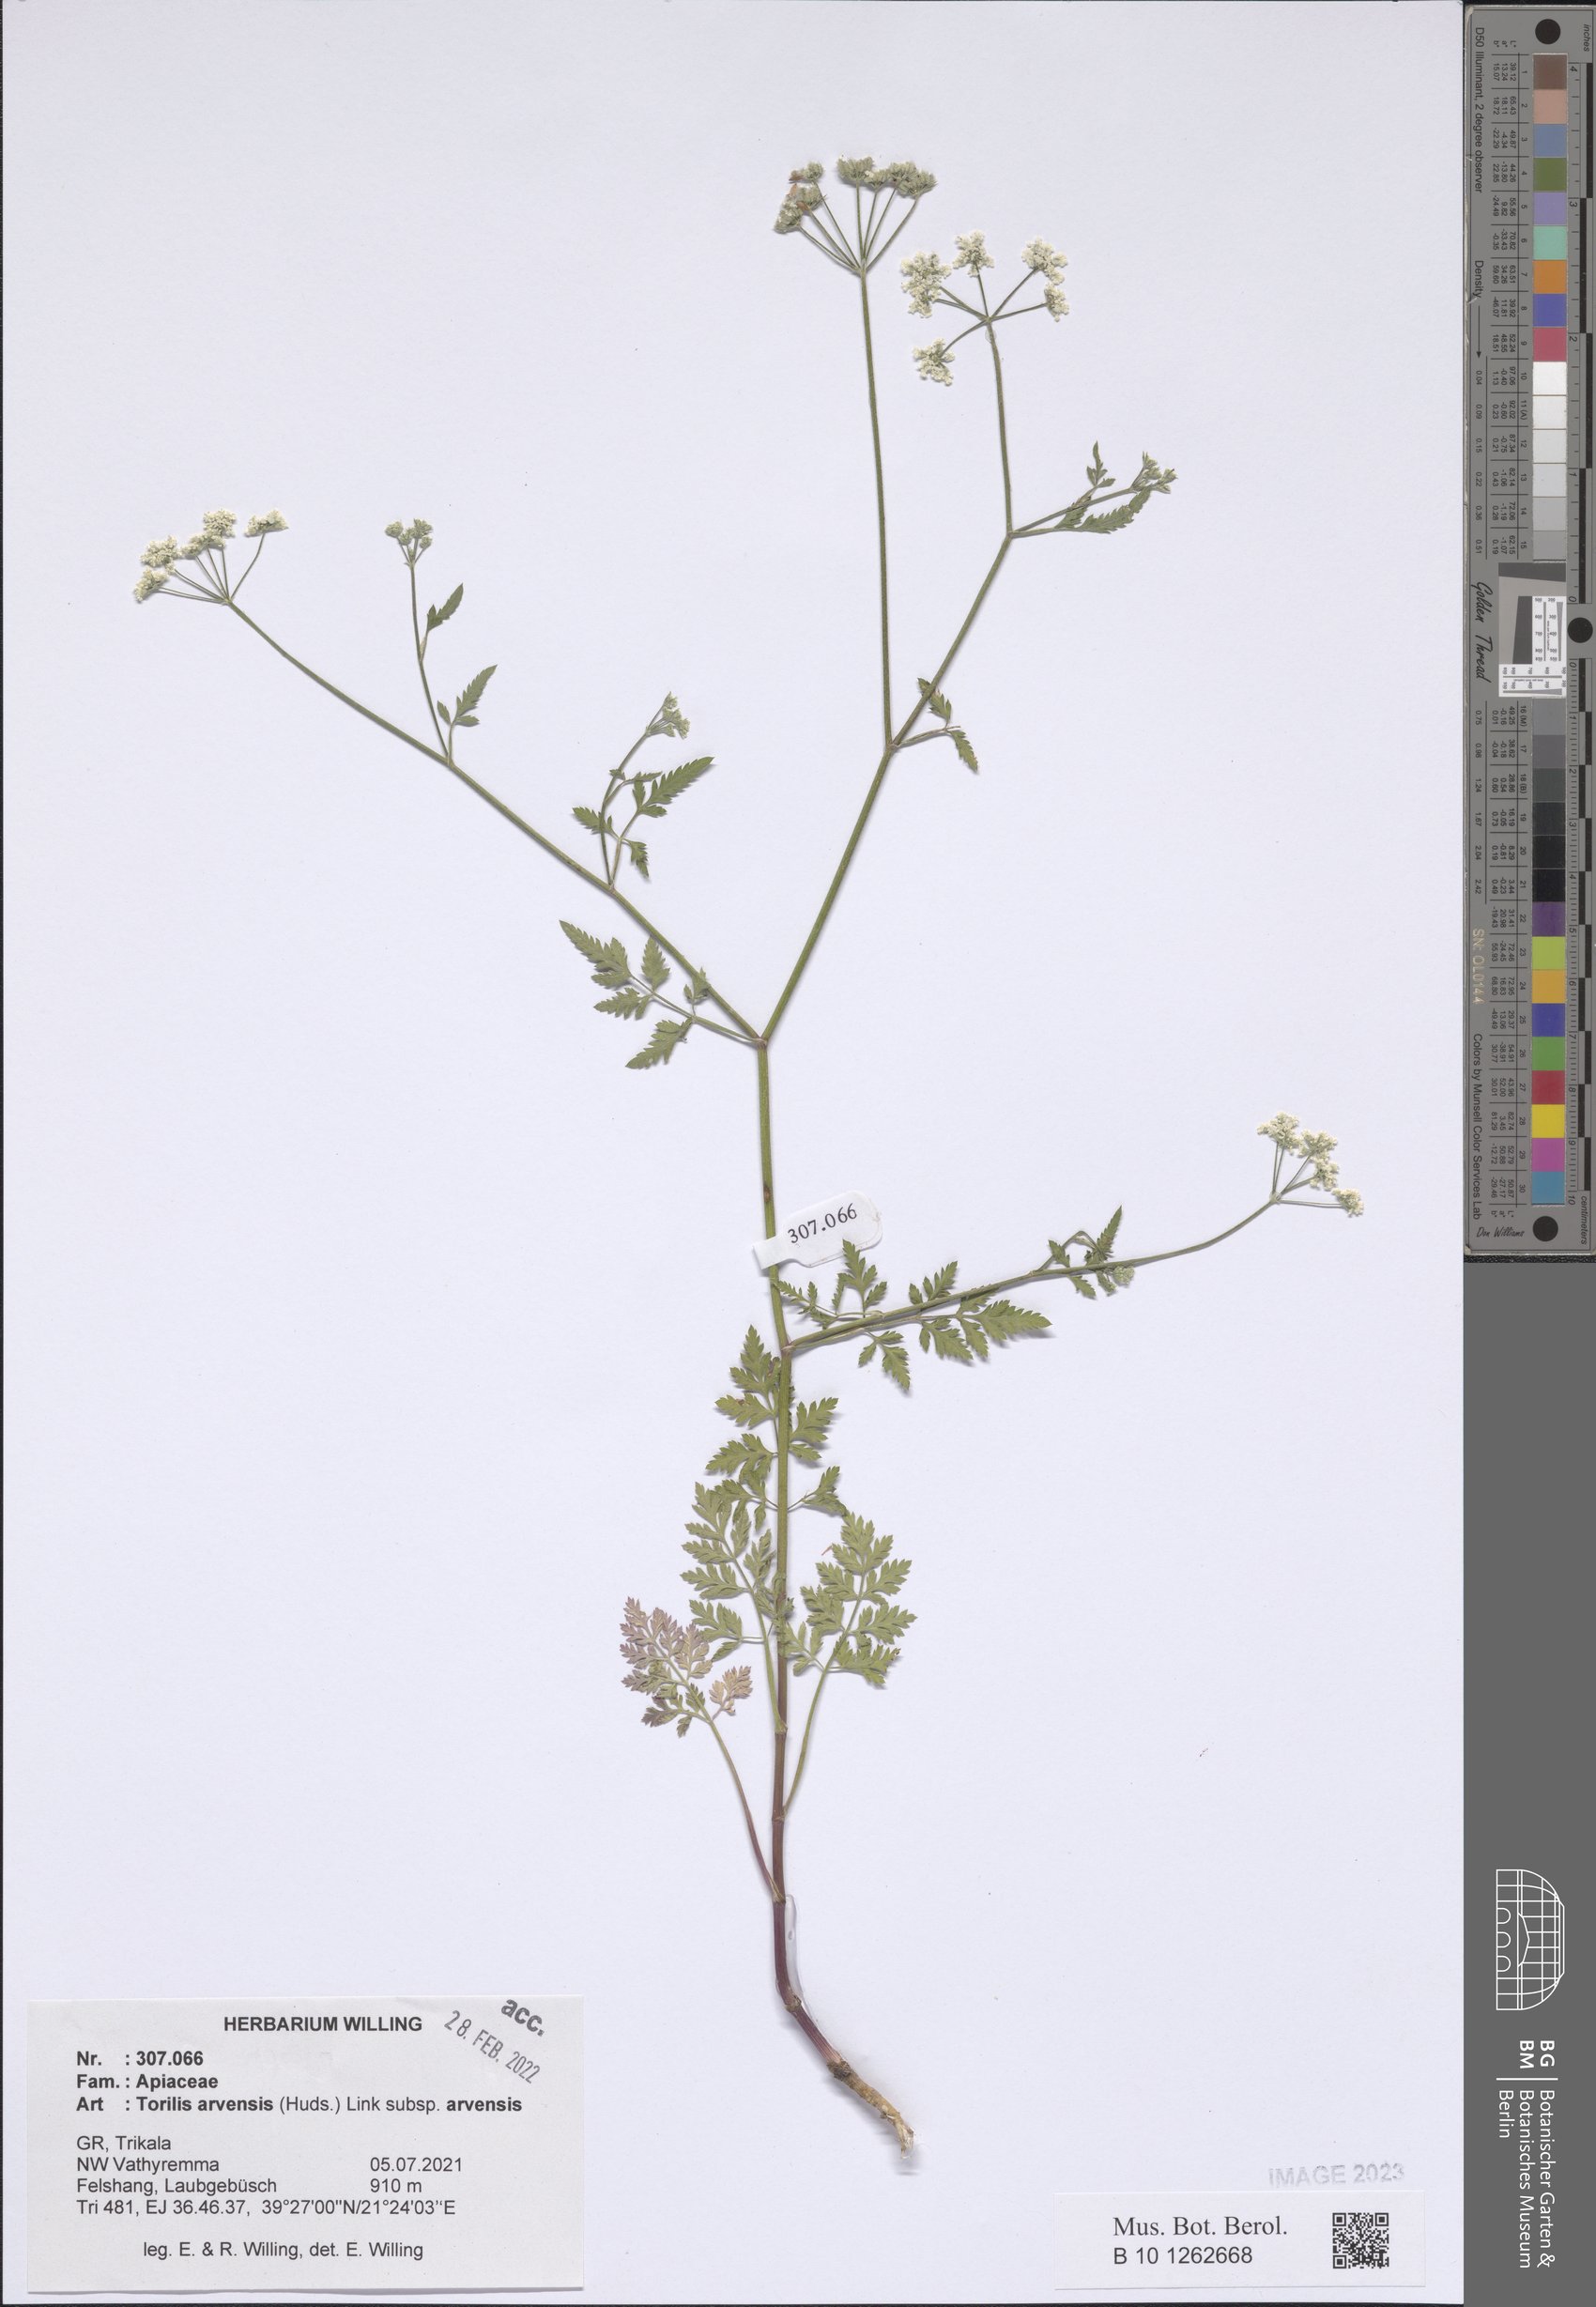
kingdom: Plantae
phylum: Tracheophyta
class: Magnoliopsida
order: Apiales
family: Apiaceae
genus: Torilis
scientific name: Torilis arvensis
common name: Spreading hedge-parsley
